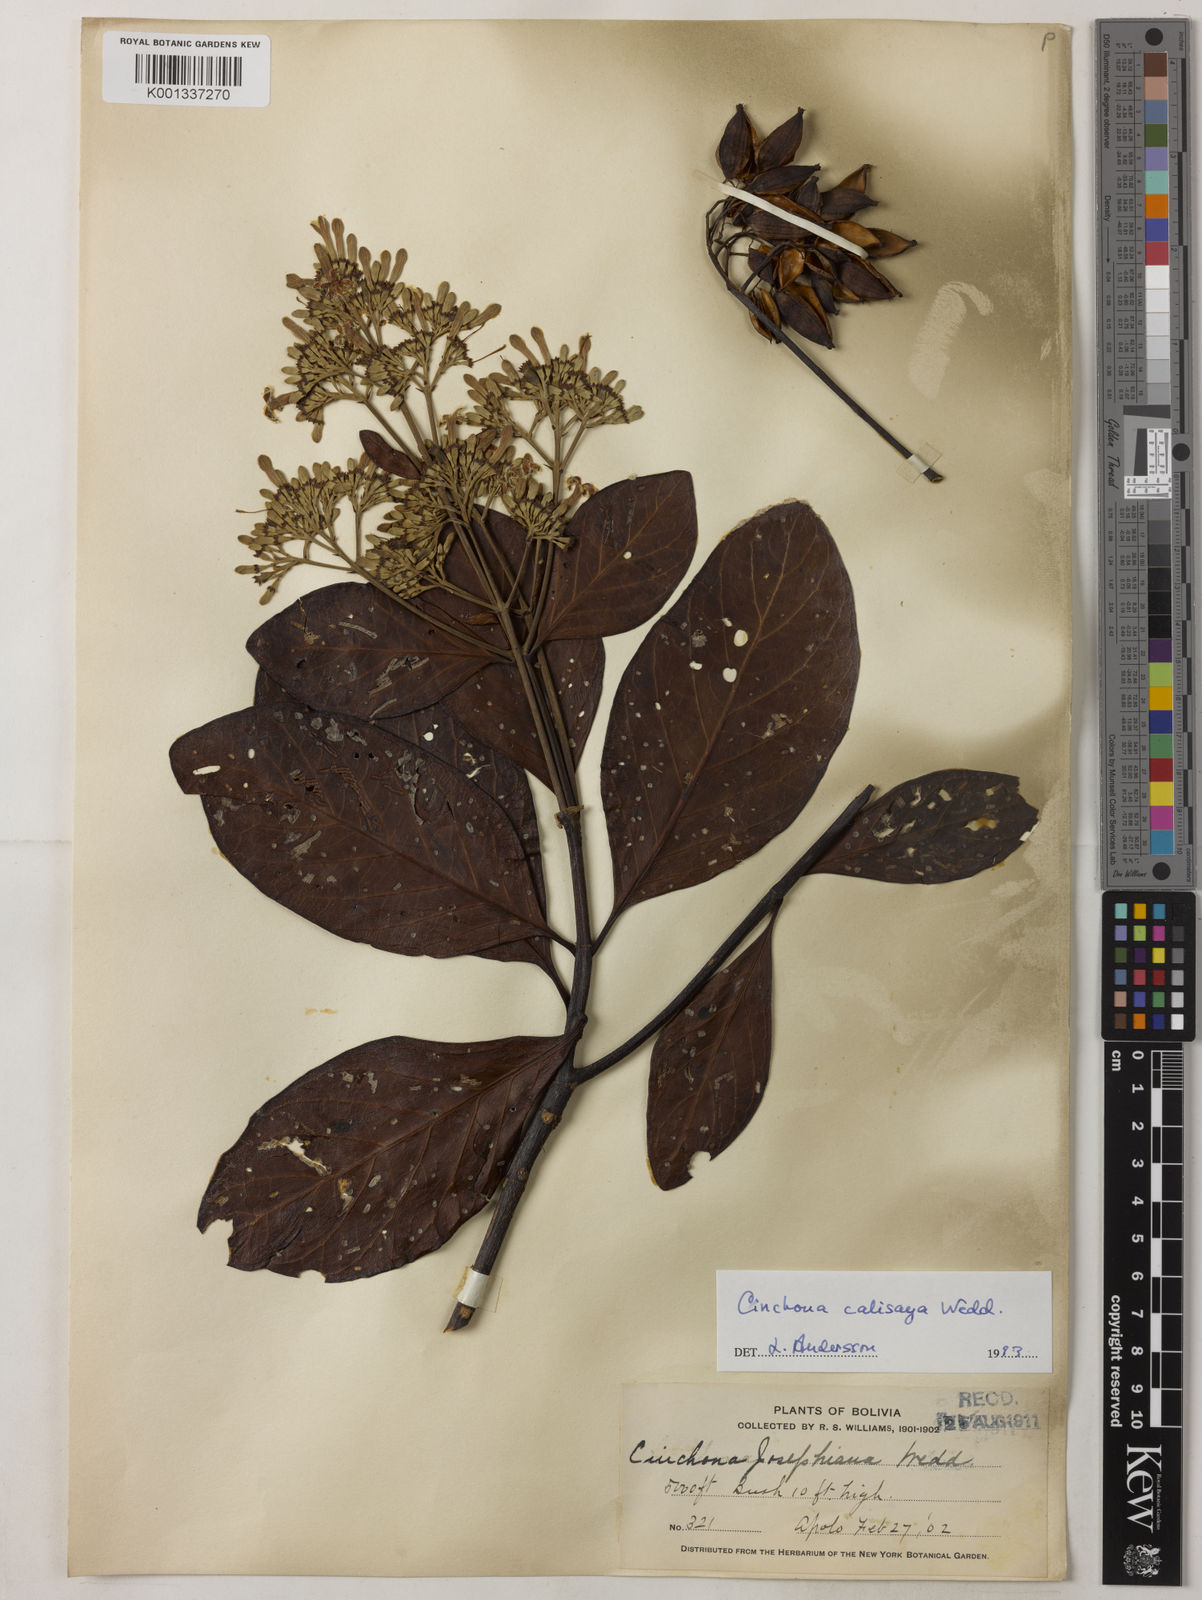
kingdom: Plantae
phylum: Tracheophyta
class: Magnoliopsida
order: Gentianales
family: Rubiaceae
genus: Cinchona
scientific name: Cinchona calisaya
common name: Ledgerbark
